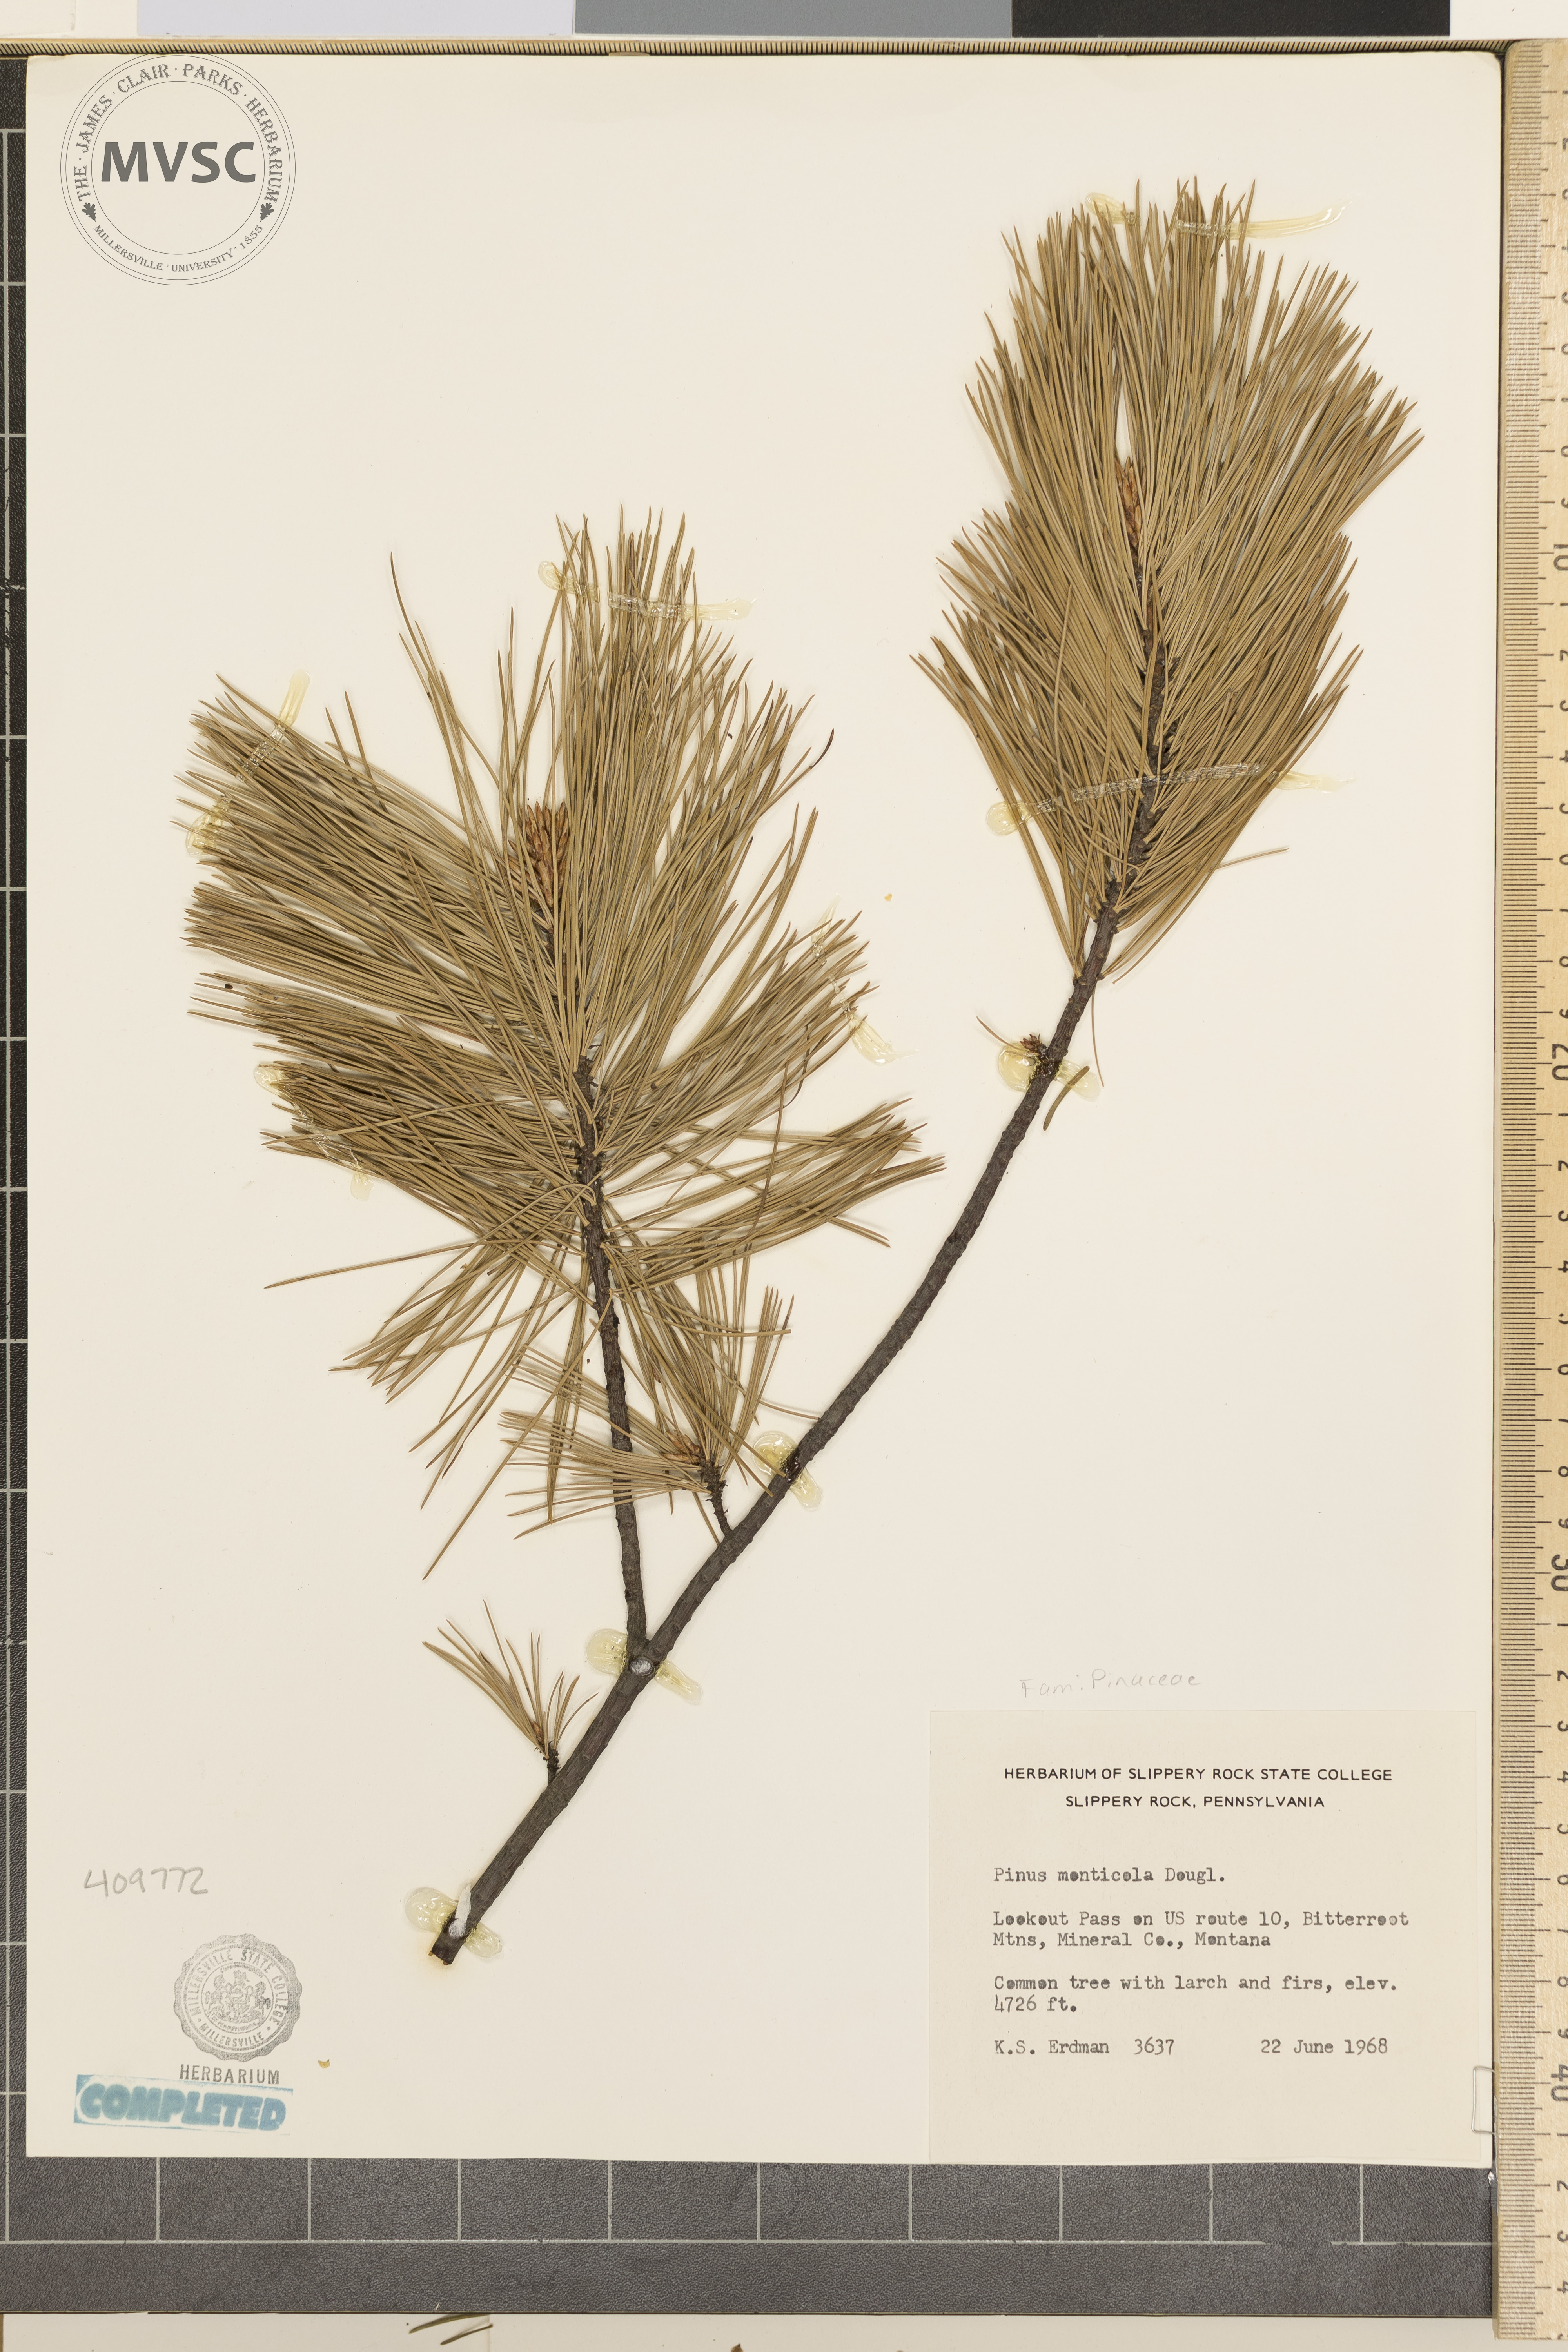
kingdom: Plantae
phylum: Tracheophyta
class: Pinopsida
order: Pinales
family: Pinaceae
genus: Pinus
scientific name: Pinus monticola
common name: Western white pine
